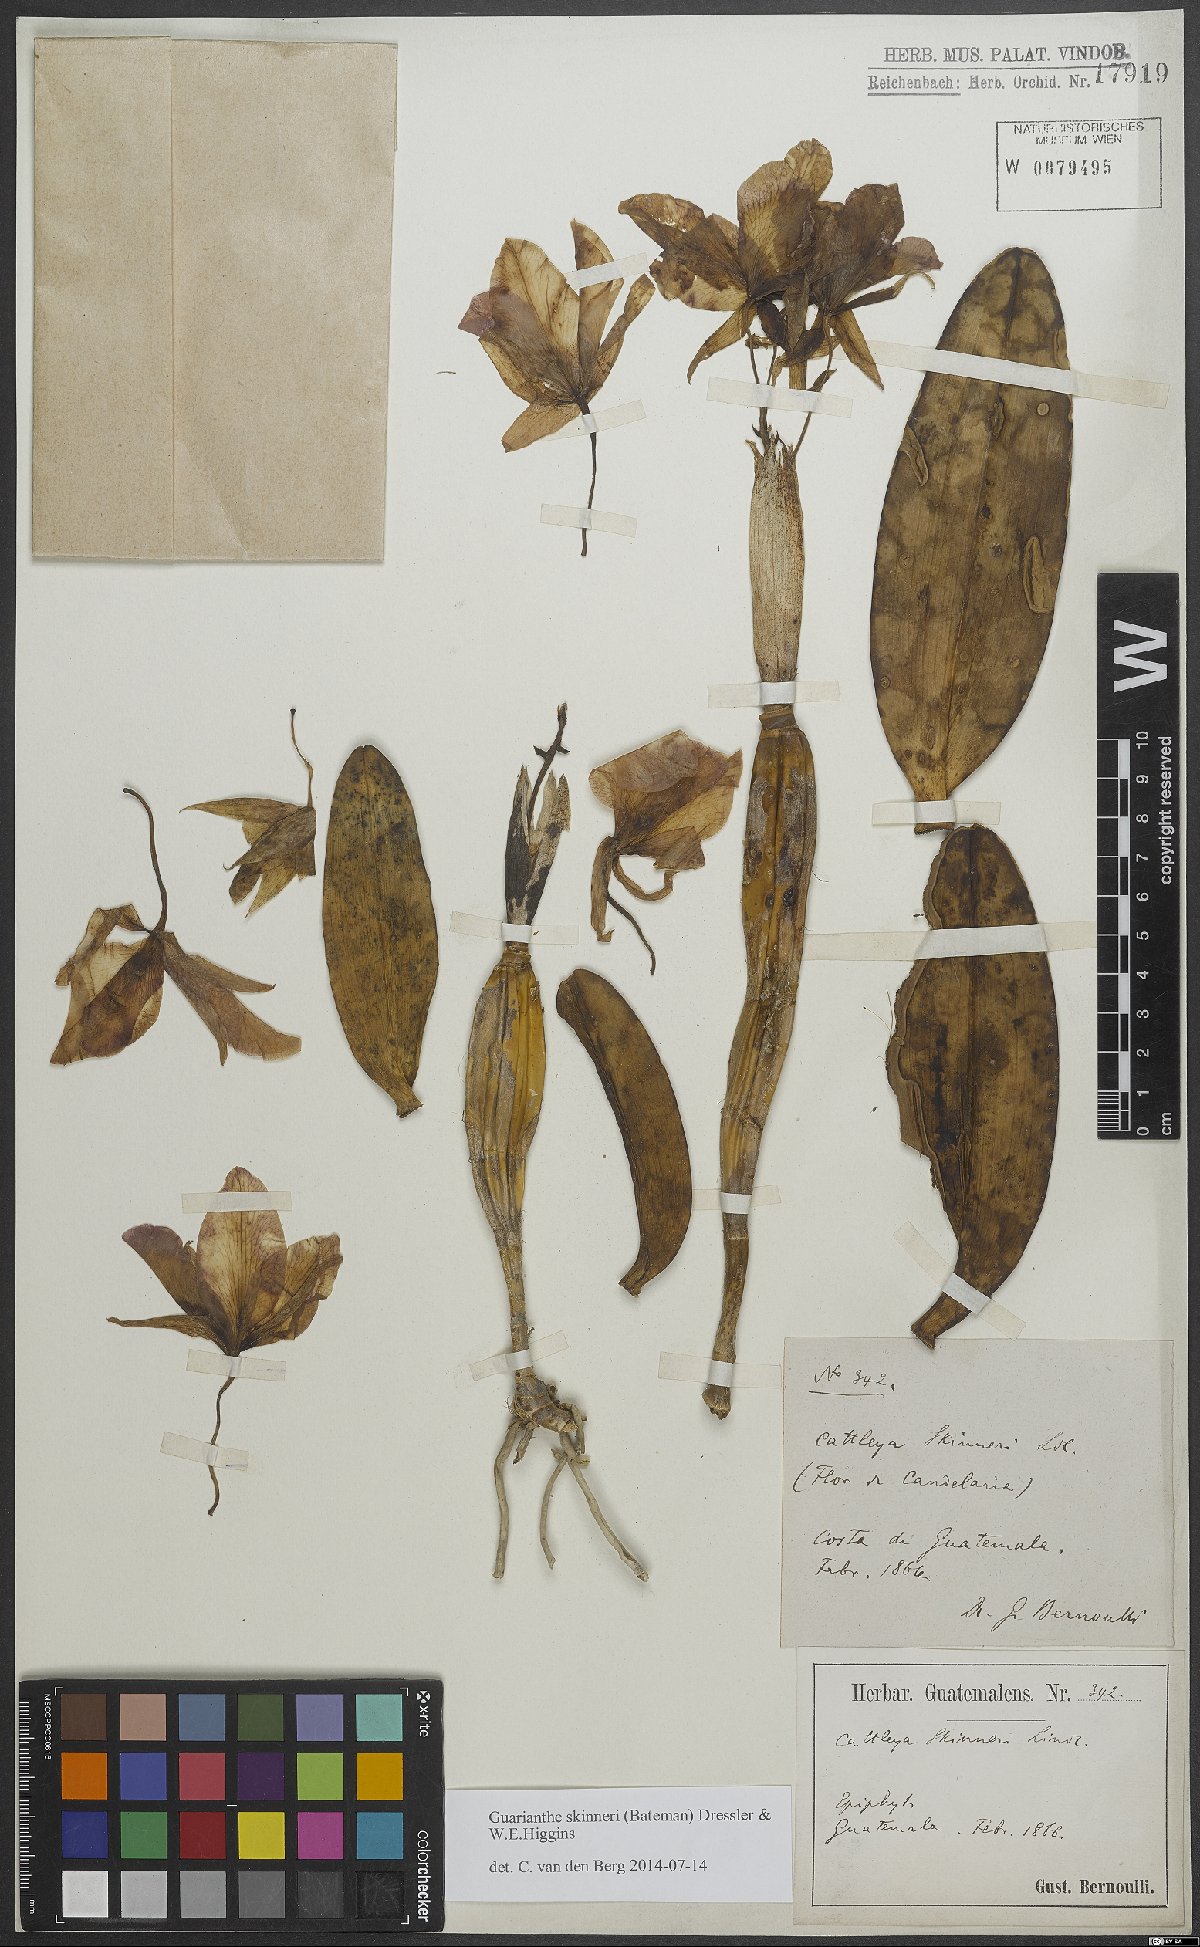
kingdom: Plantae
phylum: Tracheophyta
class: Liliopsida
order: Asparagales
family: Orchidaceae
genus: Guarianthe
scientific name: Guarianthe skinneri
